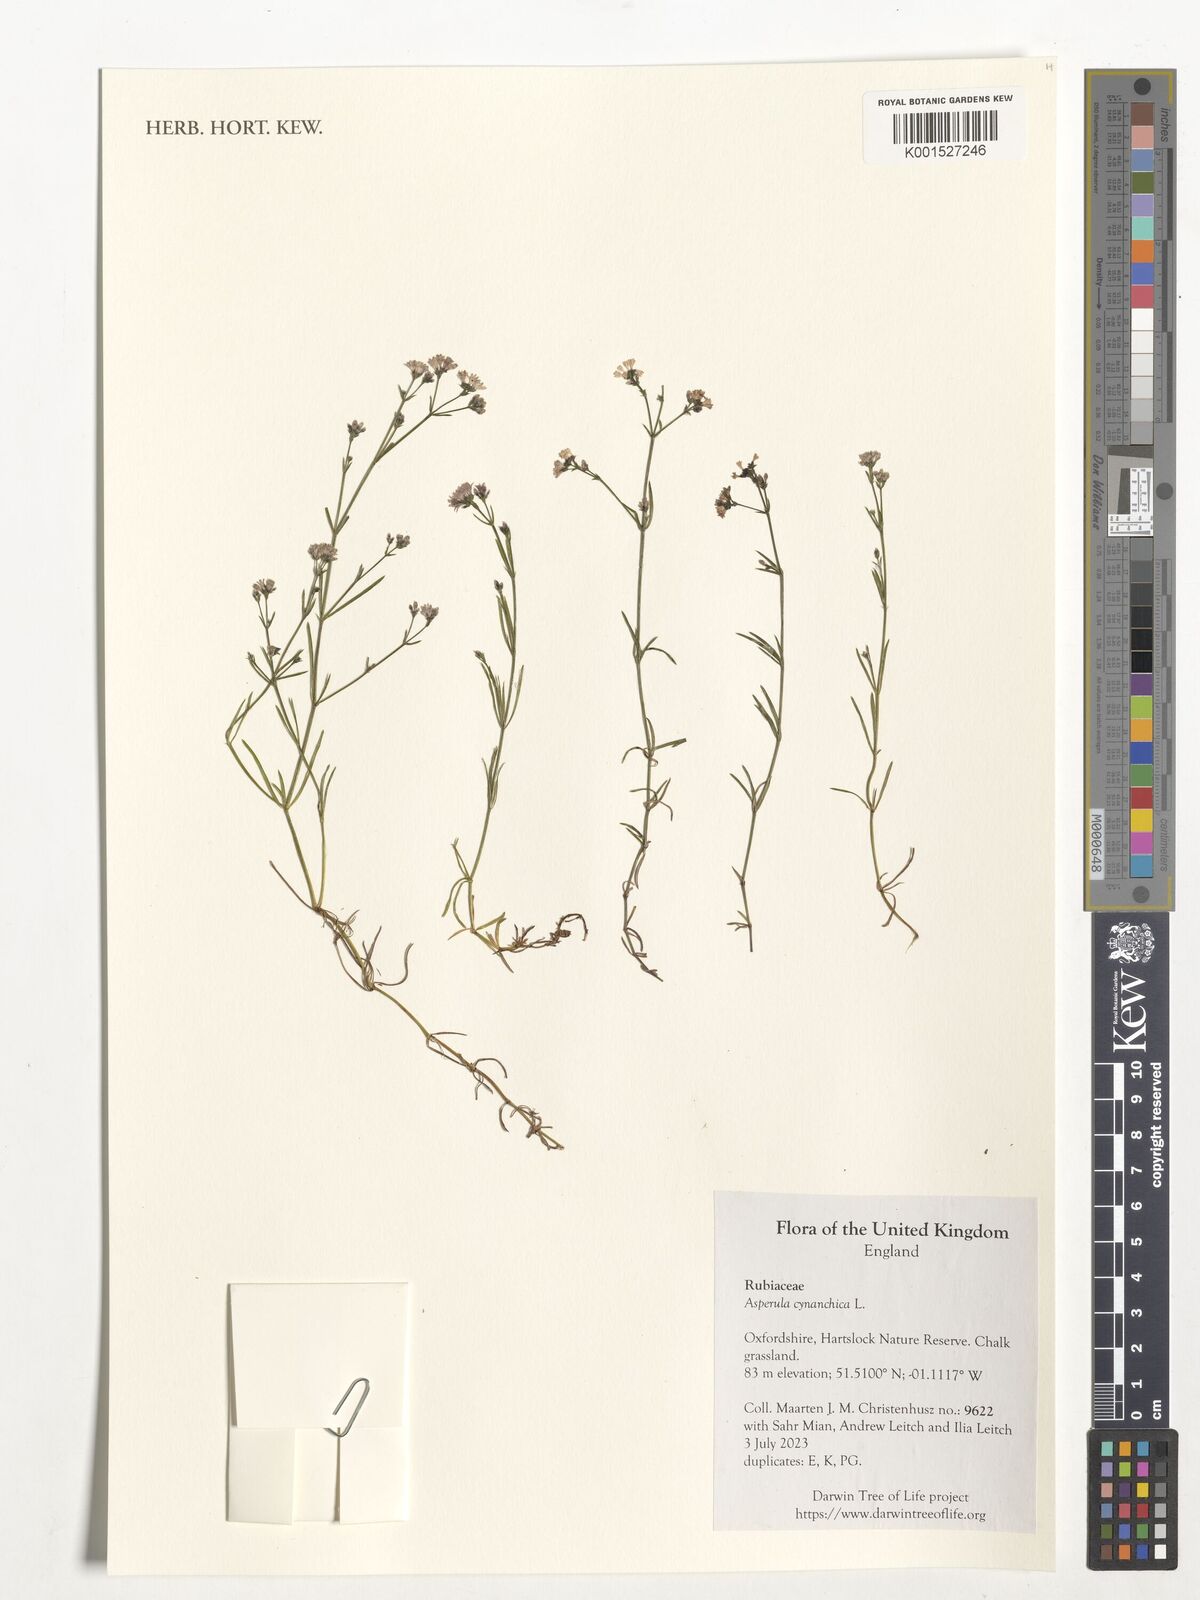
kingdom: Plantae
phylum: Tracheophyta
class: Magnoliopsida
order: Gentianales
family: Rubiaceae
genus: Cynanchica
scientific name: Cynanchica pyrenaica
